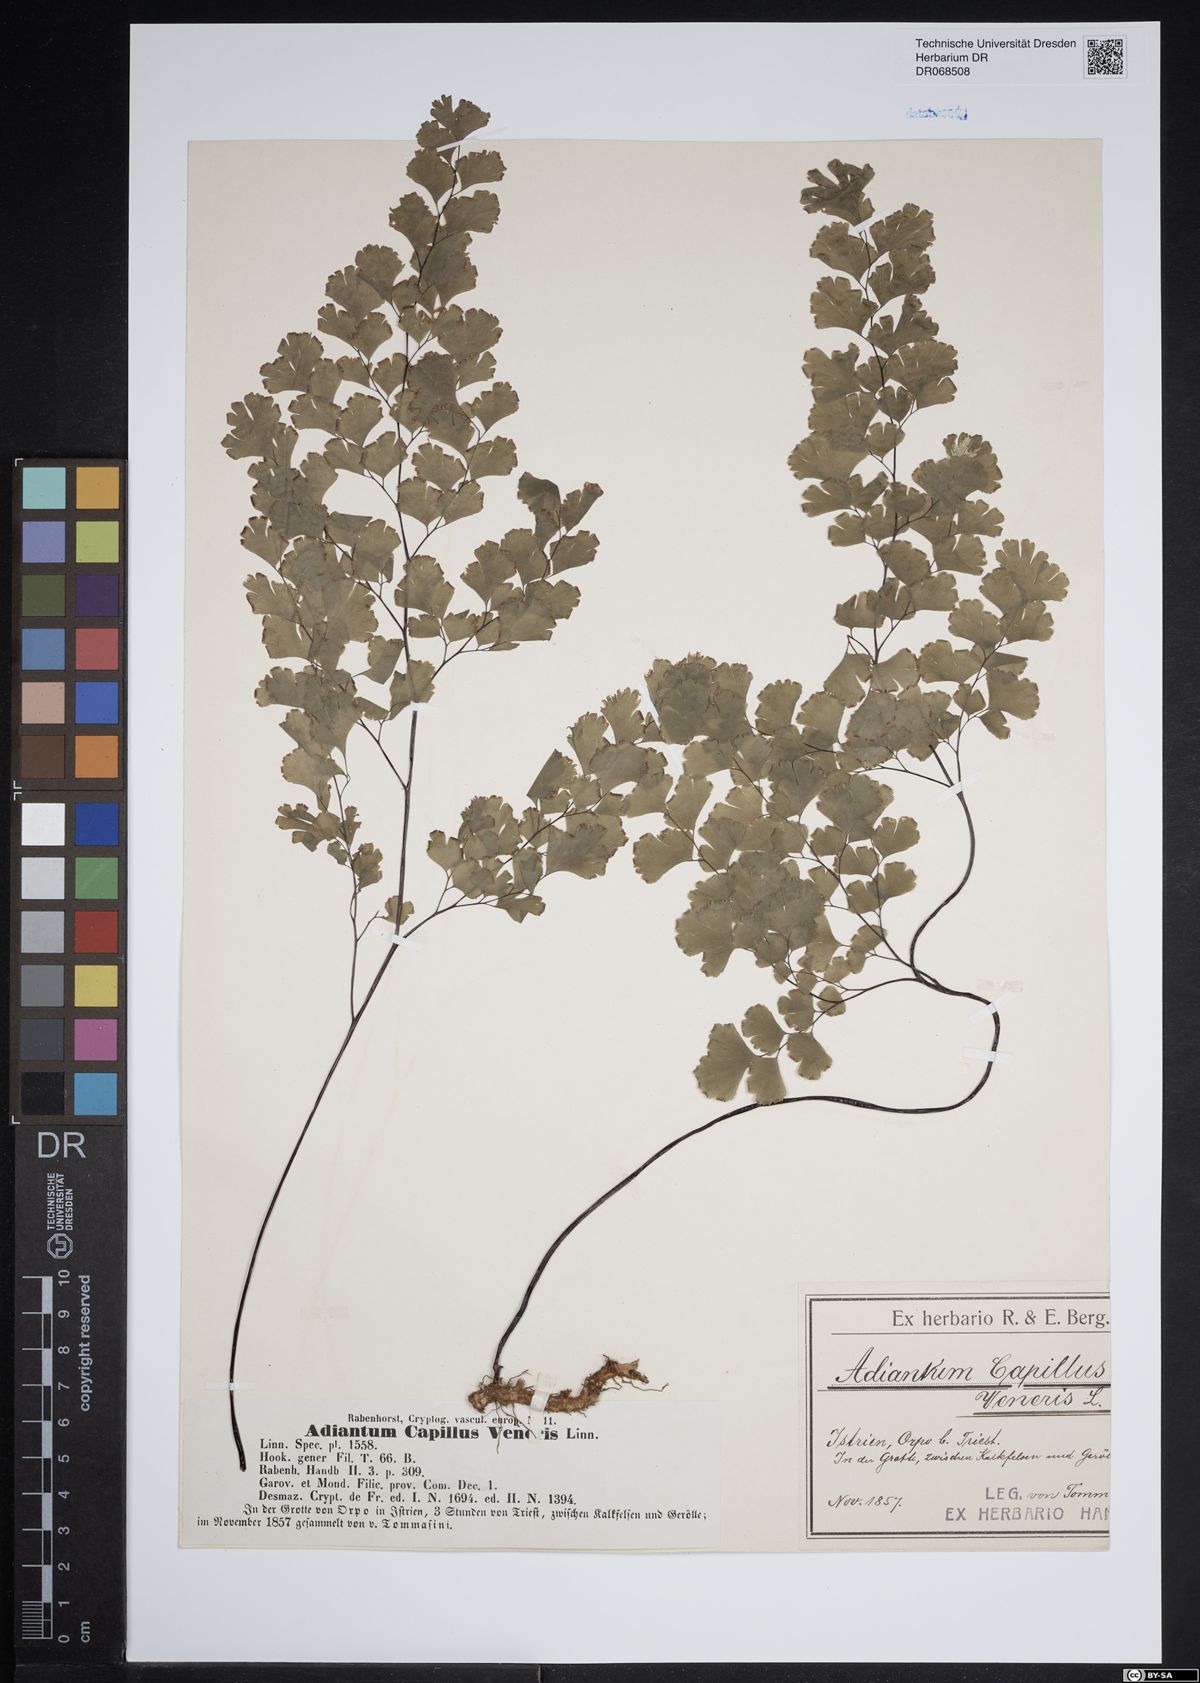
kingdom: Plantae
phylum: Tracheophyta
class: Polypodiopsida
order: Polypodiales
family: Pteridaceae
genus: Adiantum
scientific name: Adiantum capillus-veneris
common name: Maidenhair fern
